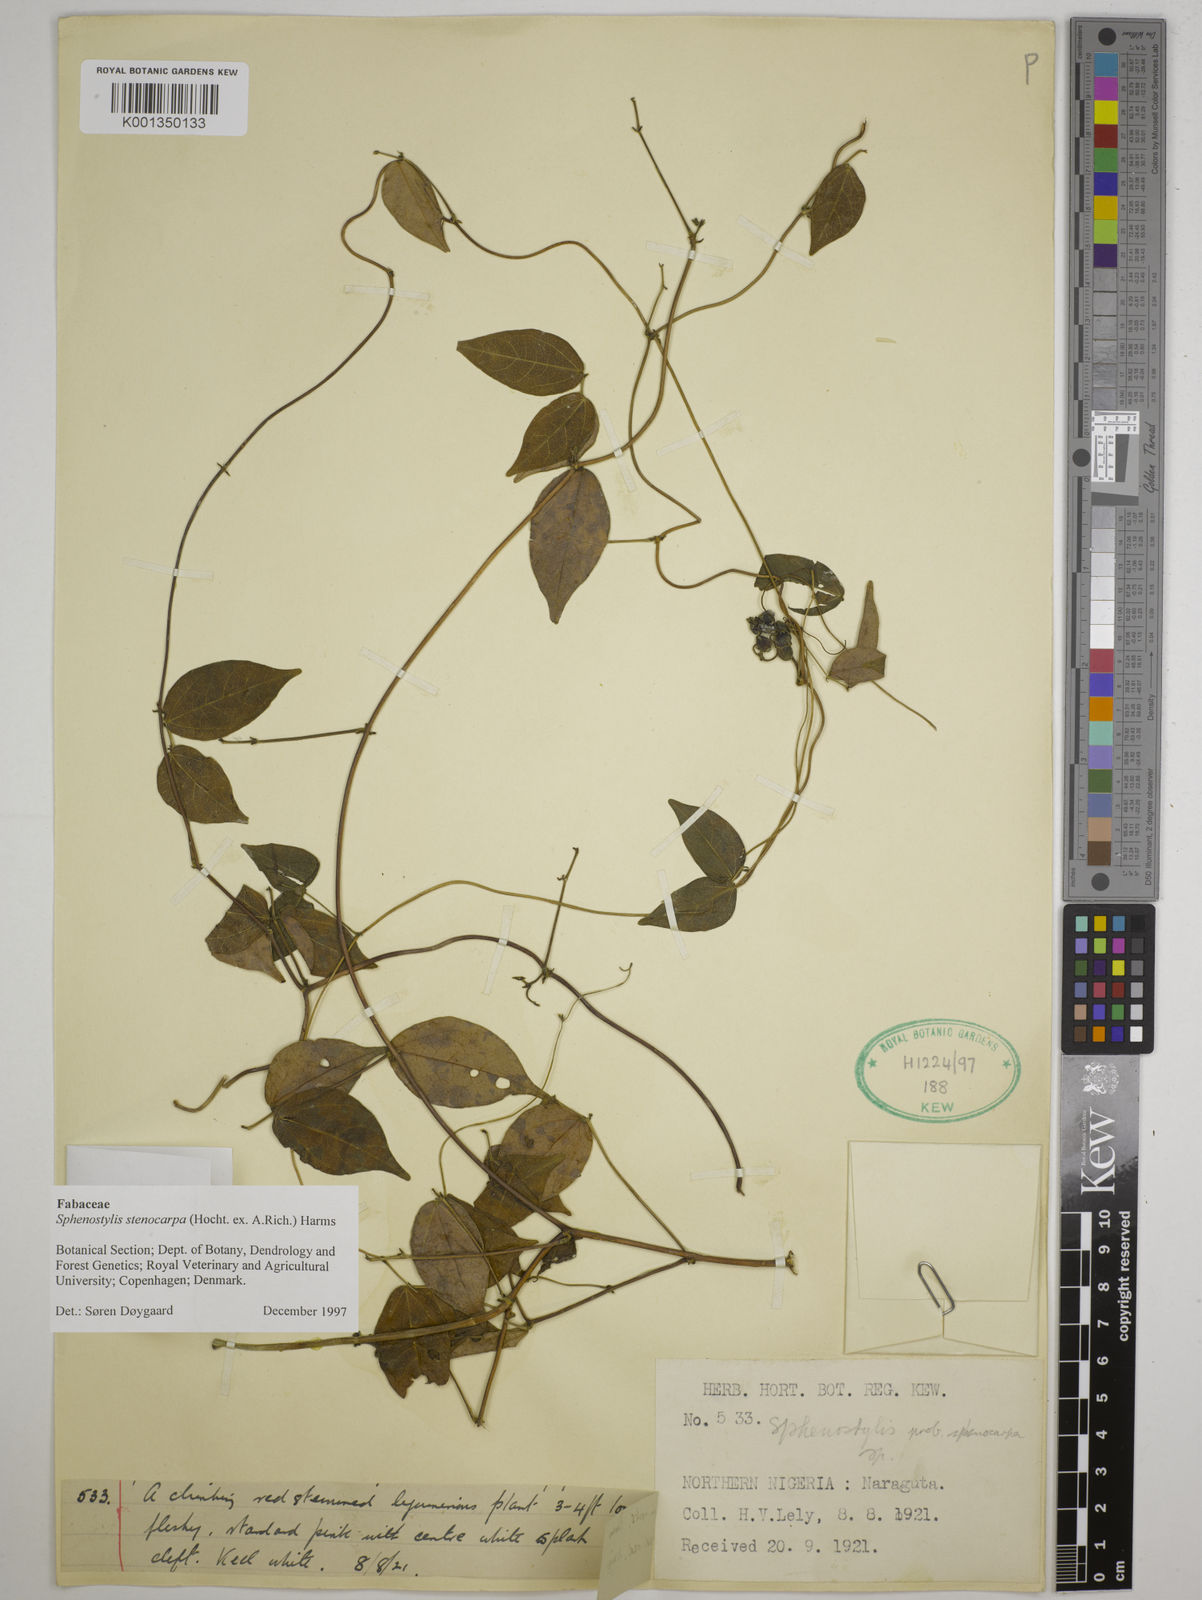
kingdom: Plantae
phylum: Tracheophyta
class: Magnoliopsida
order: Fabales
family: Fabaceae
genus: Sphenostylis
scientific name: Sphenostylis schweinfurthii
